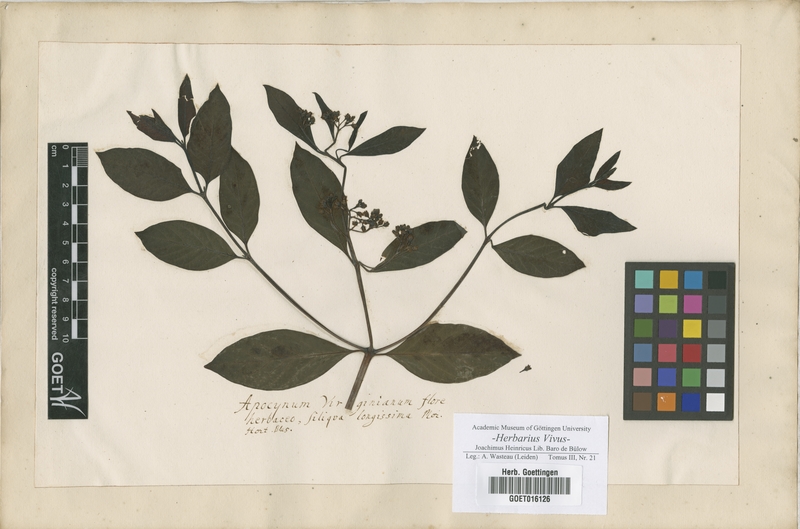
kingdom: Plantae
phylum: Tracheophyta
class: Magnoliopsida
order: Gentianales
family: Apocynaceae
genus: Apocynum
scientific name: Apocynum cannabinum
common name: Hemp dogbane
